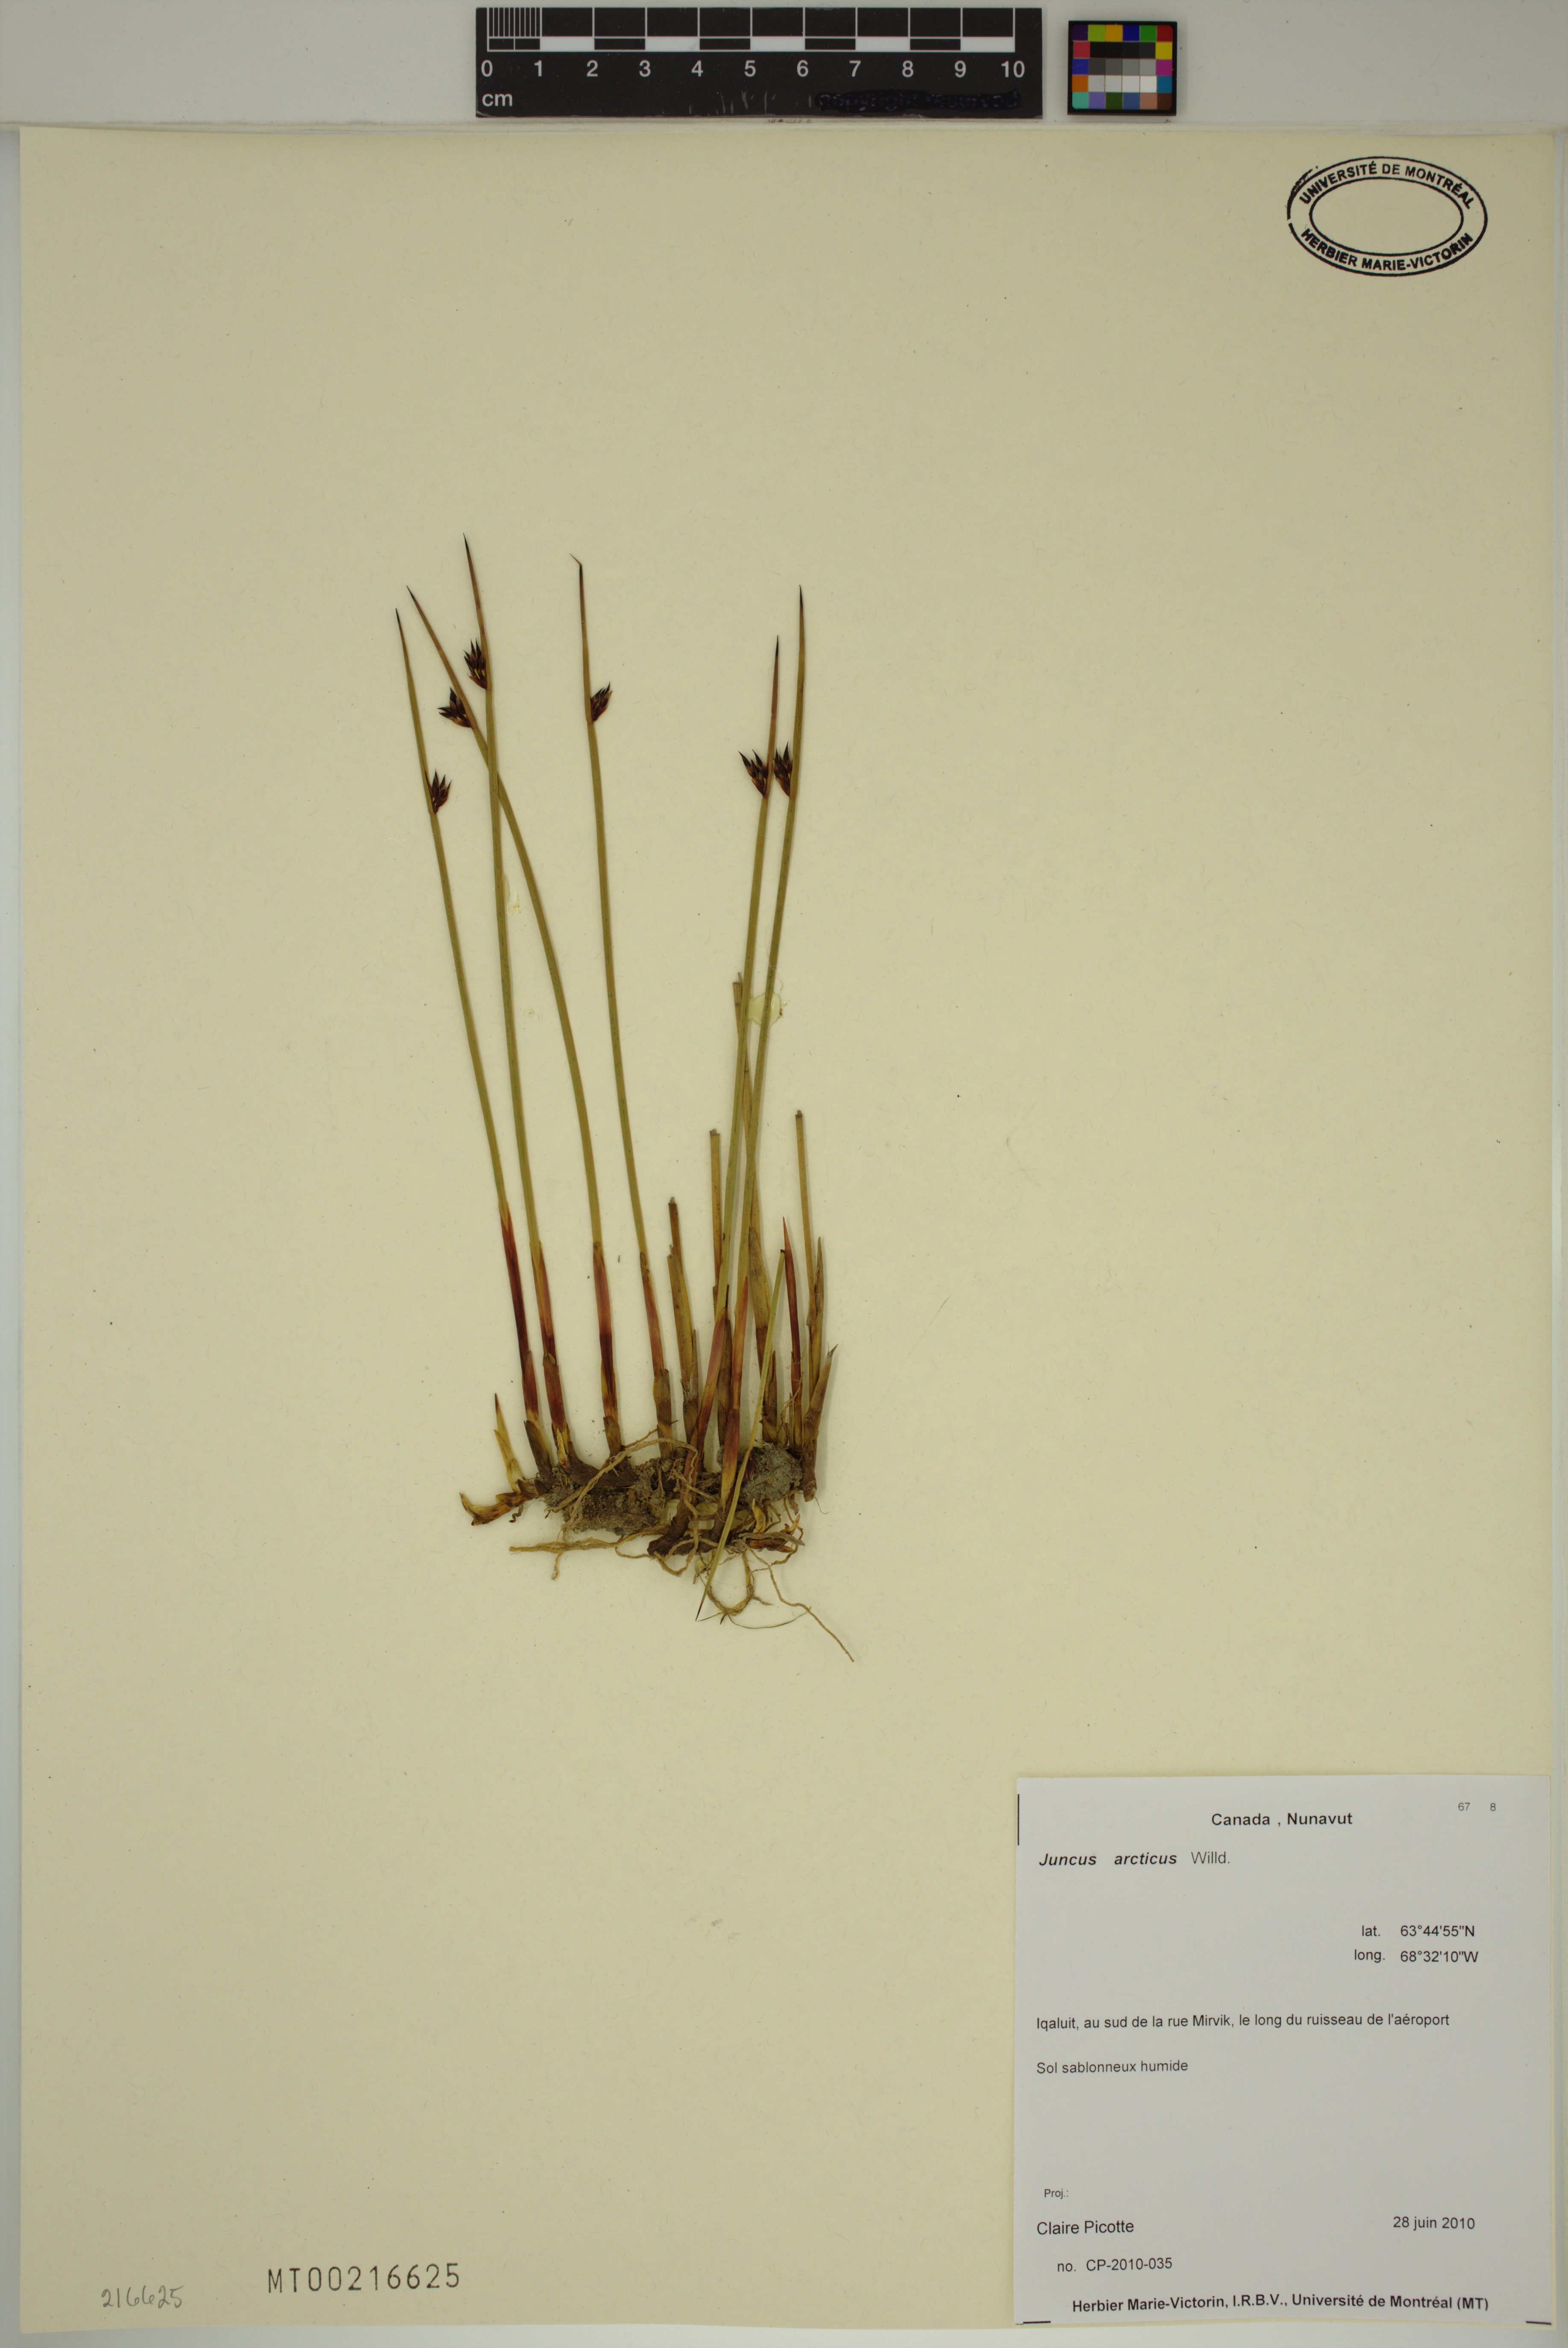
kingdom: Plantae
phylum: Tracheophyta
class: Liliopsida
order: Poales
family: Juncaceae
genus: Juncus
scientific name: Juncus arcticus
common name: Arctic rush
